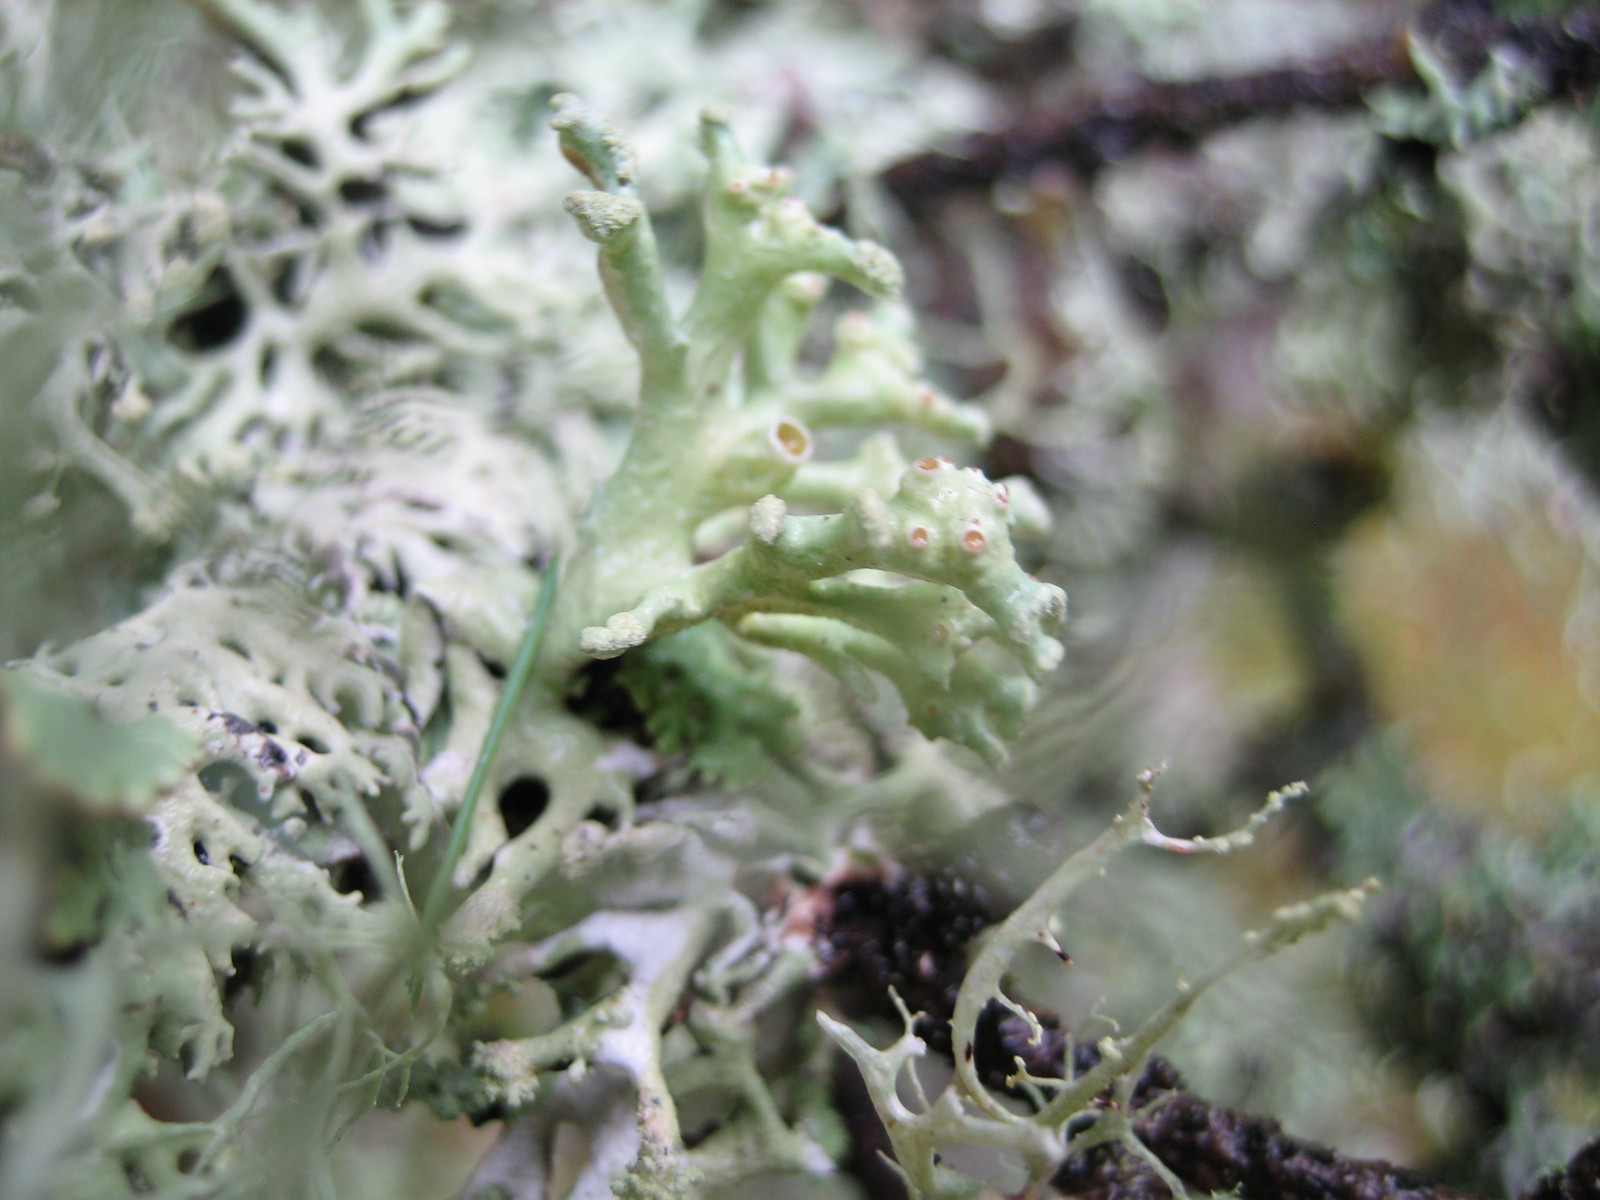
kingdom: Fungi
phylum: Ascomycota
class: Lecanoromycetes
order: Lecanorales
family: Parmeliaceae
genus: Hypogymnia
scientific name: Hypogymnia tubulosa
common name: finger-kvistlav
